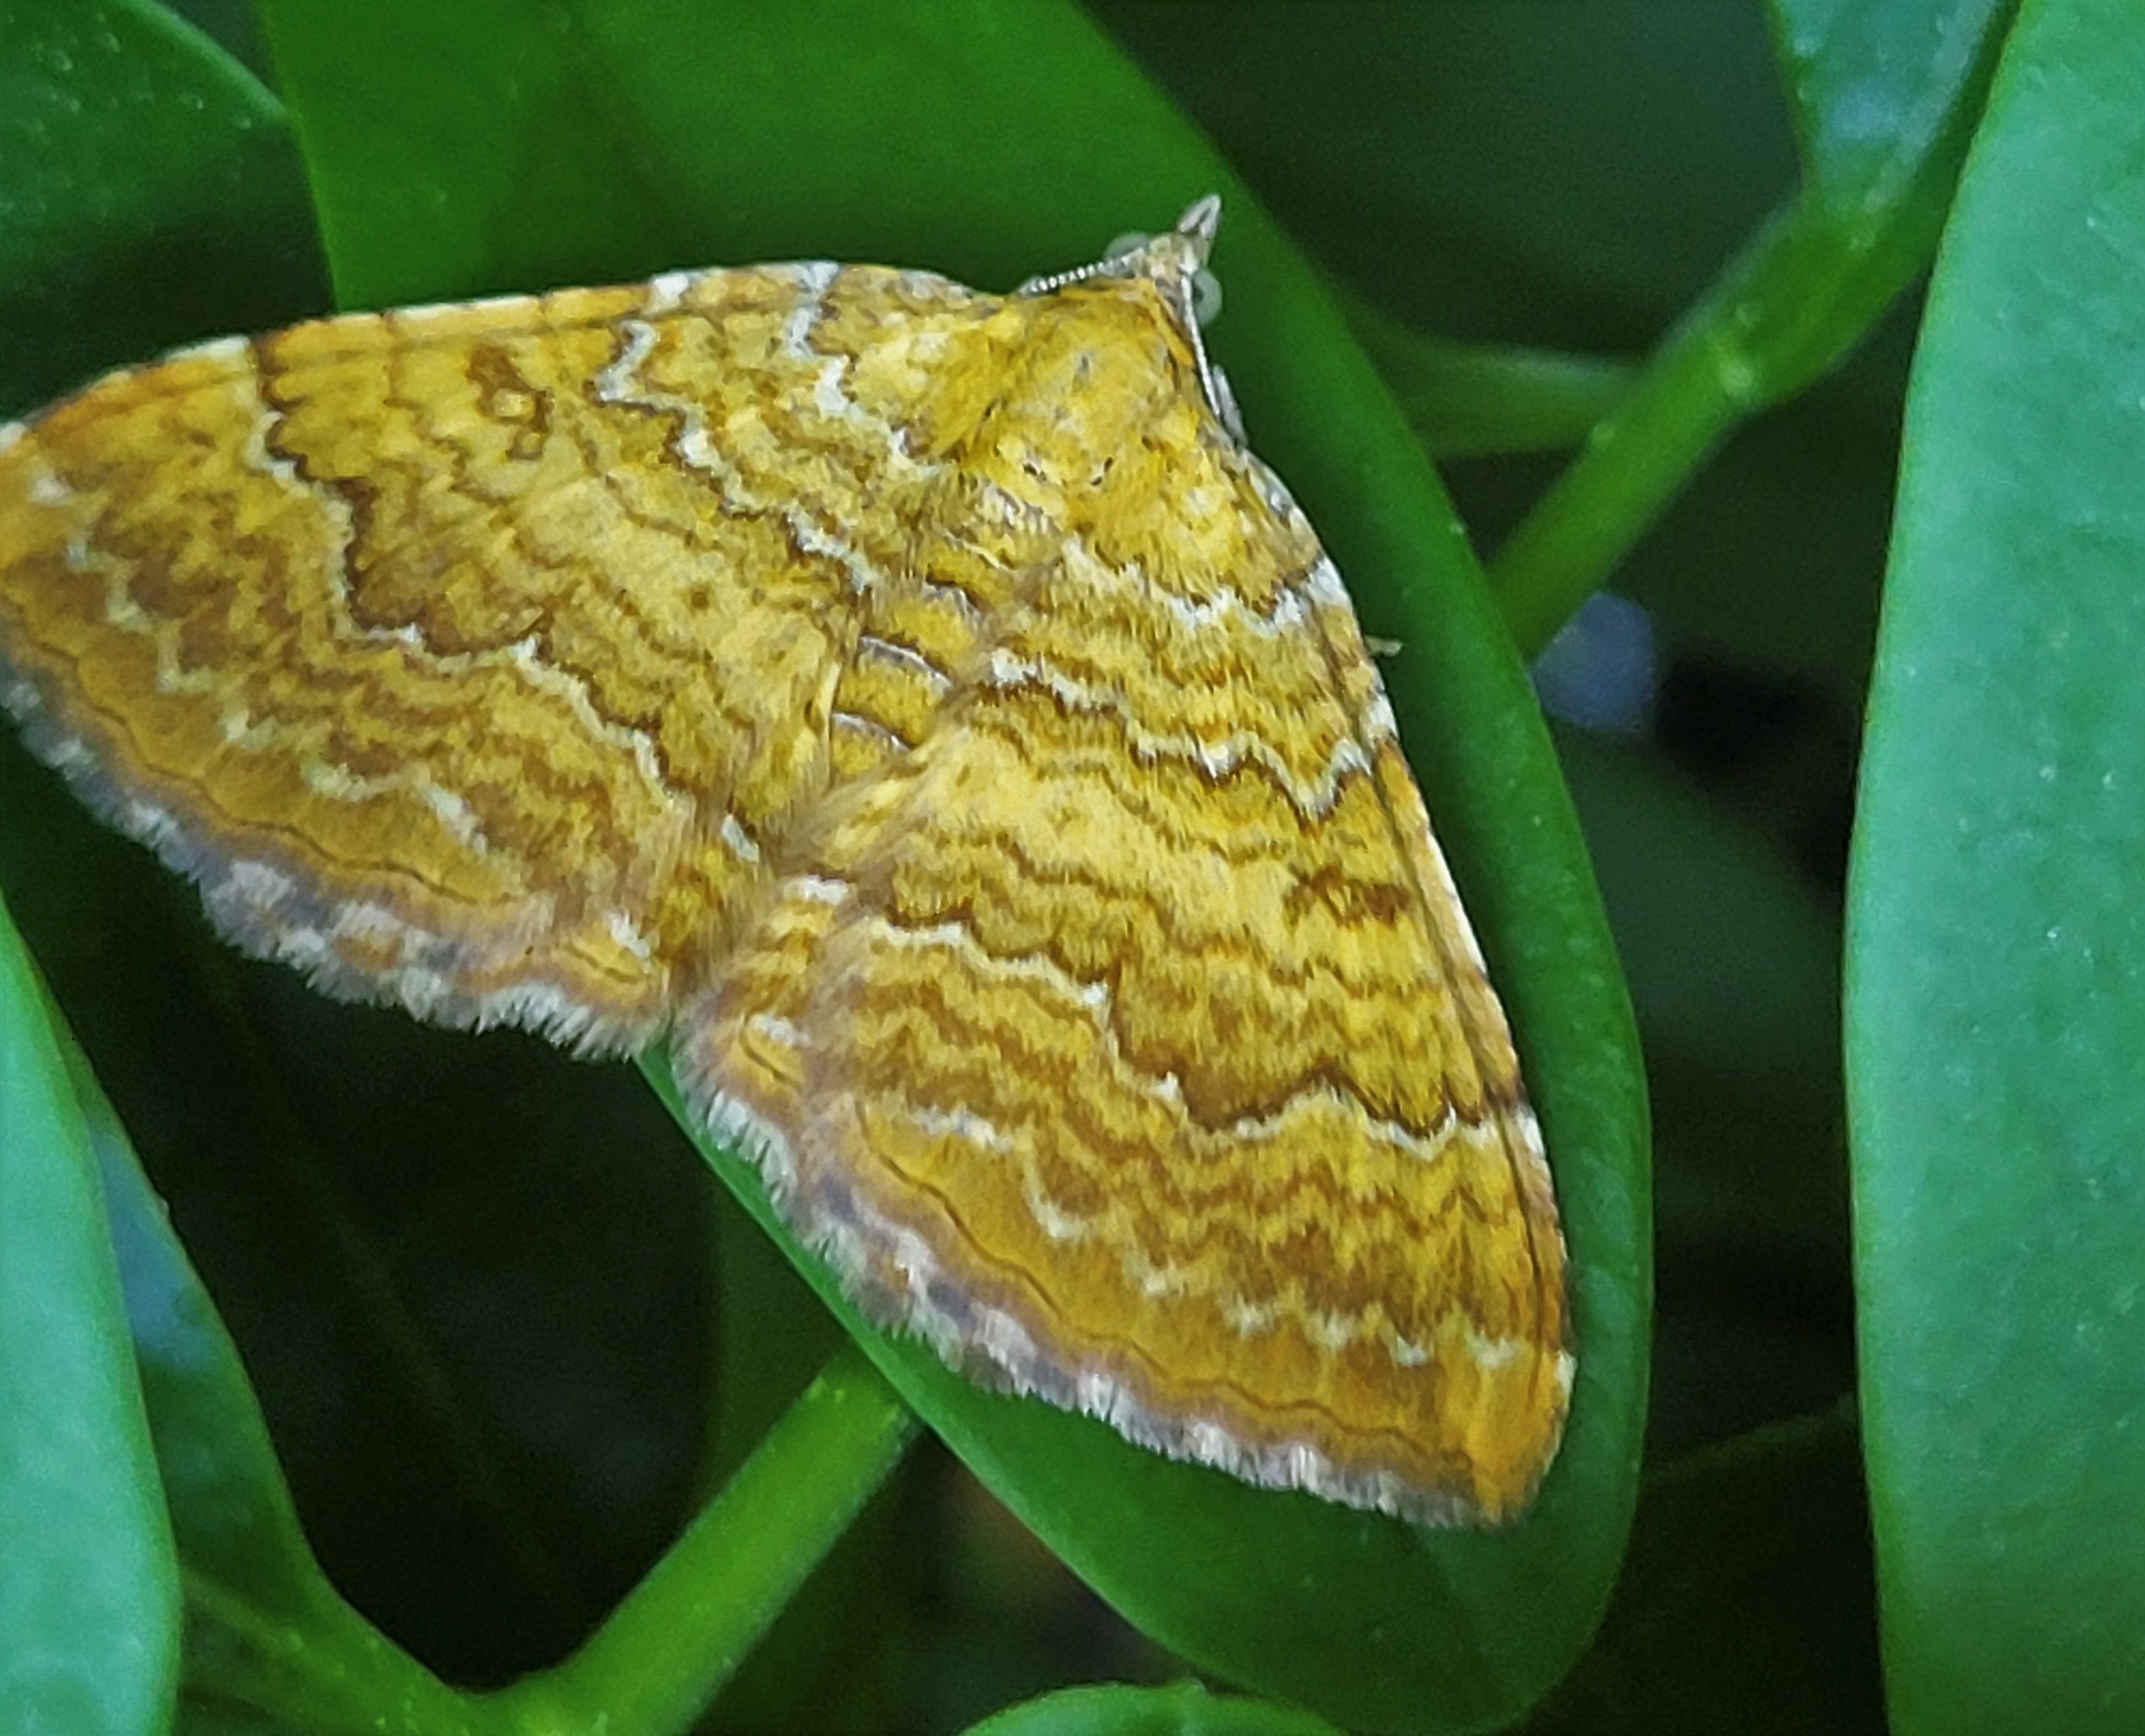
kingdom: Animalia
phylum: Arthropoda
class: Insecta
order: Lepidoptera
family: Geometridae
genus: Camptogramma
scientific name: Camptogramma bilineata
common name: Okkergul bladmåler
